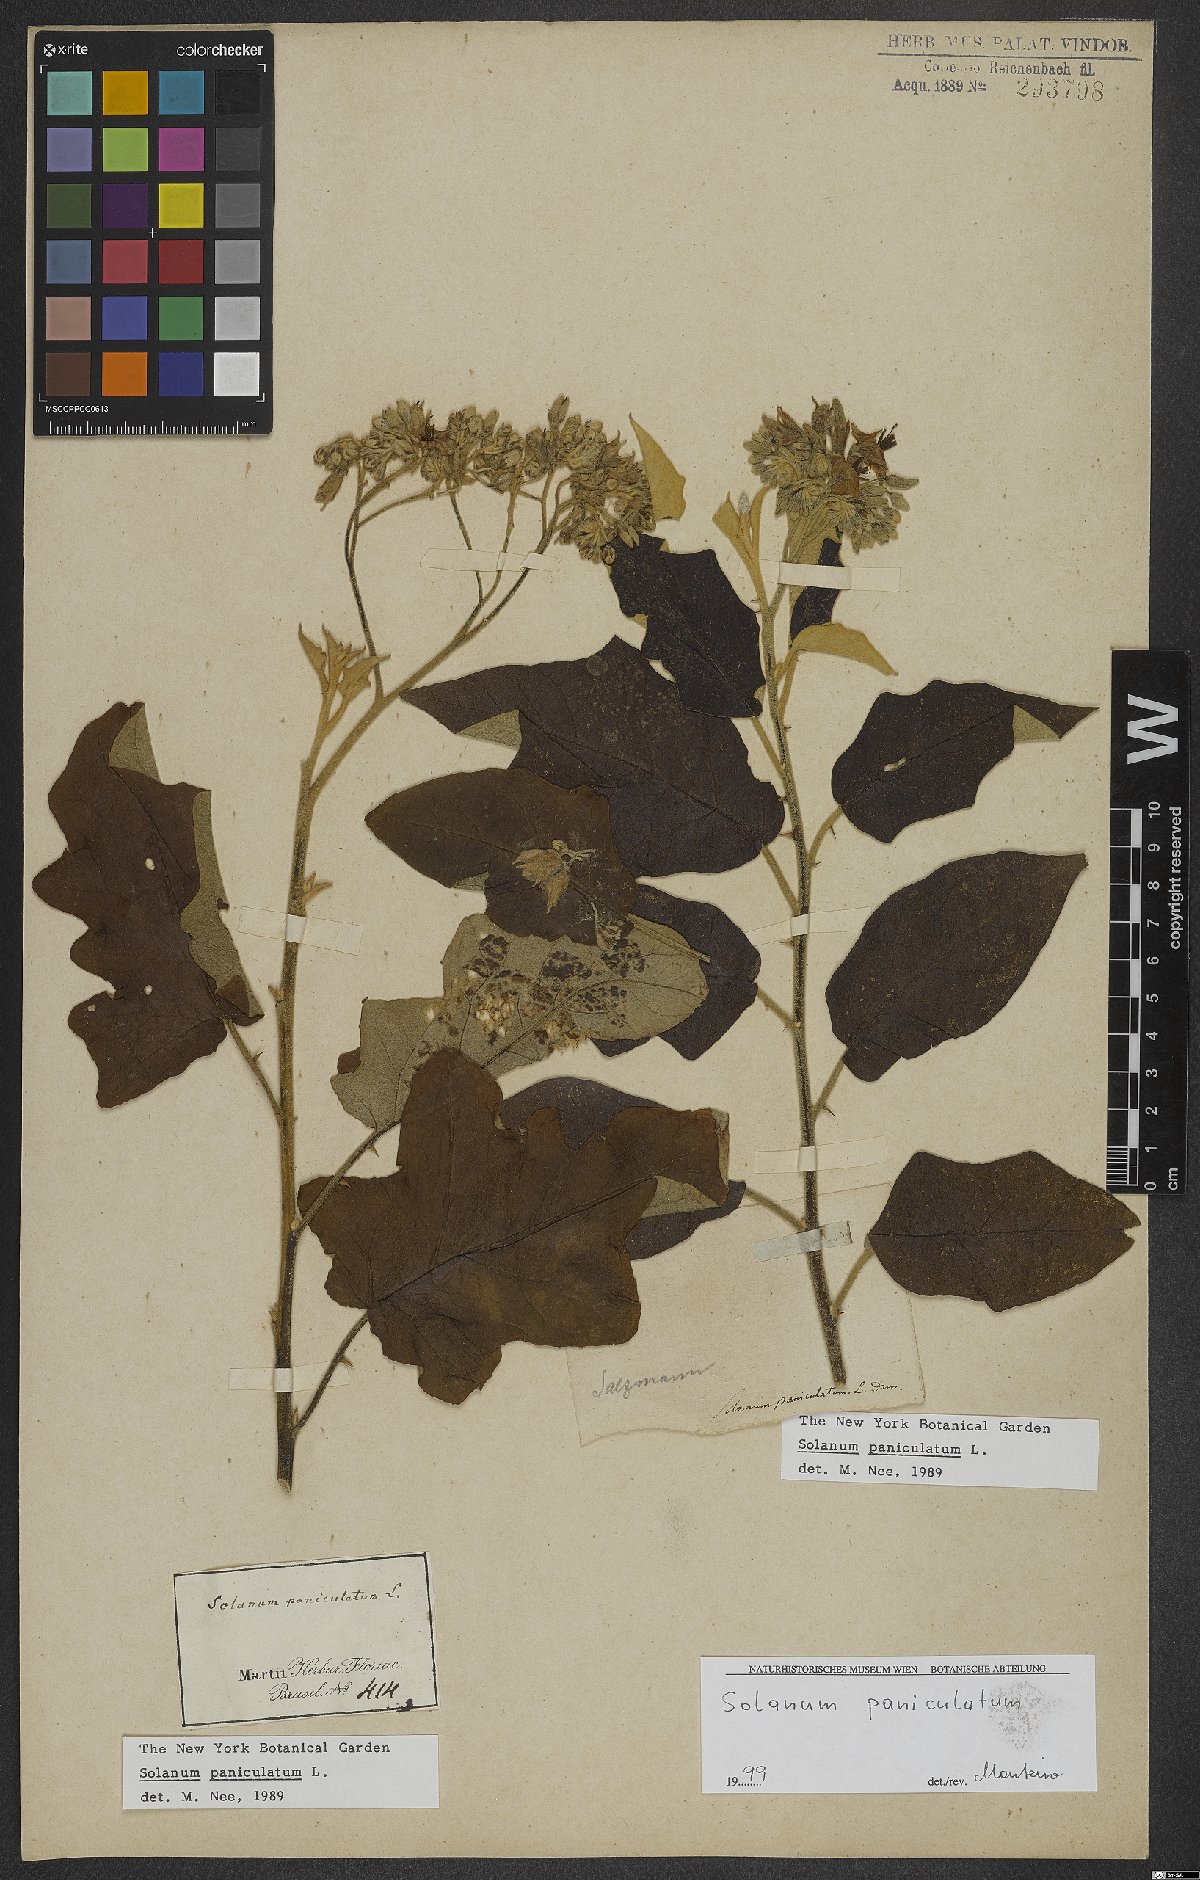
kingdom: Plantae
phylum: Tracheophyta
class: Magnoliopsida
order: Solanales
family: Solanaceae
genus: Solanum
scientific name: Solanum paniculatum
